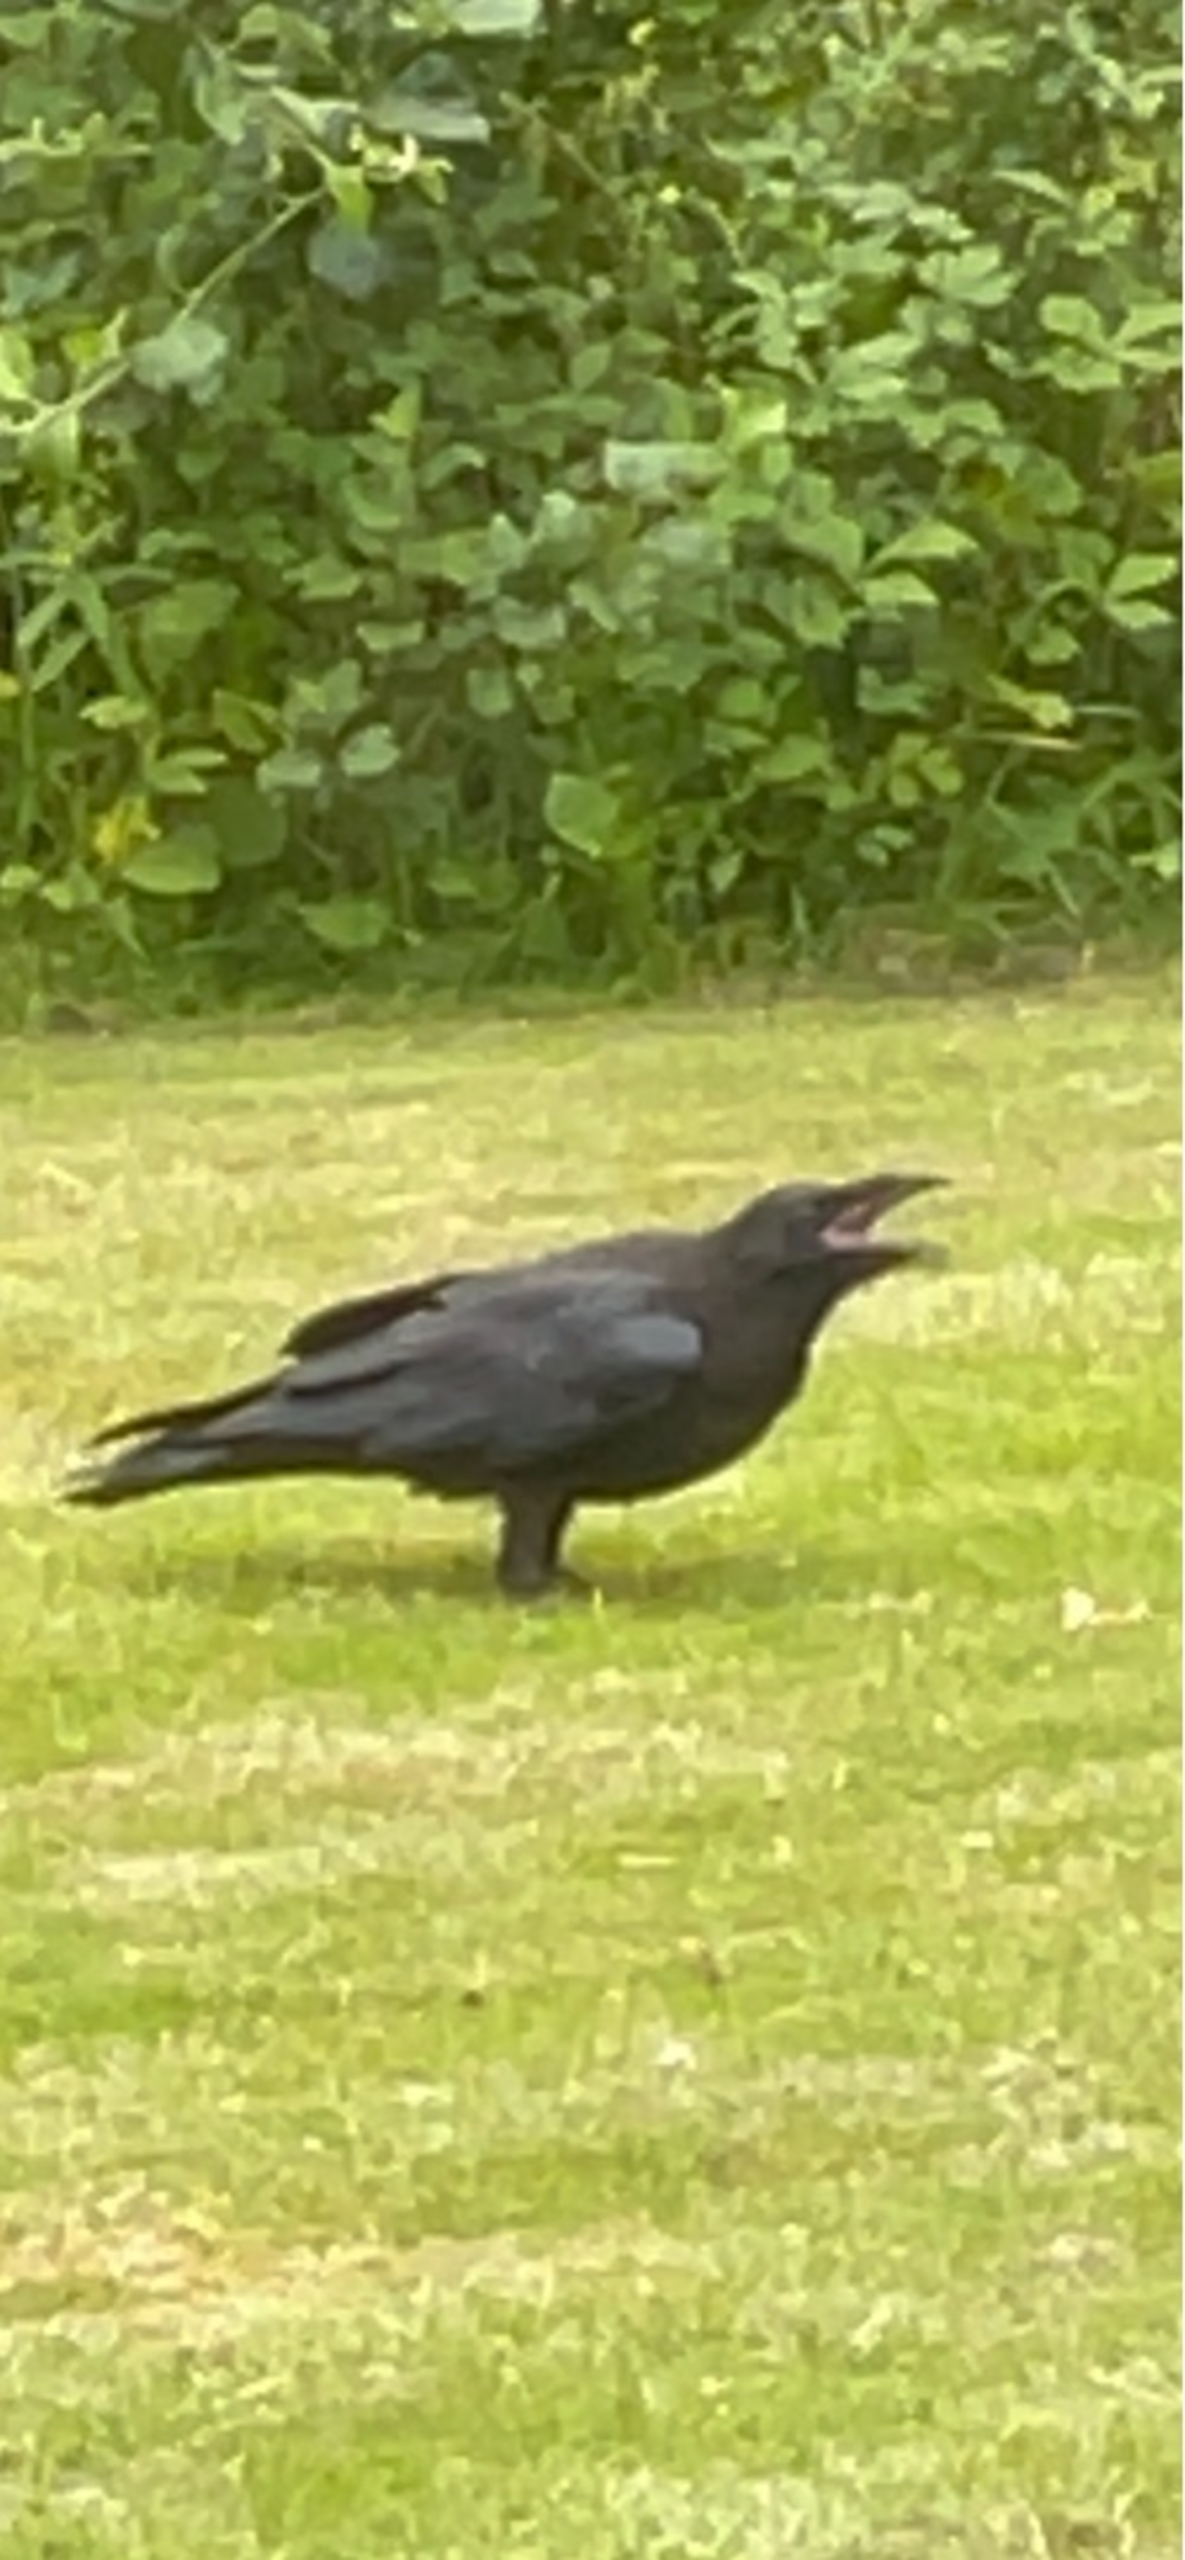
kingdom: Animalia
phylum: Chordata
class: Aves
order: Passeriformes
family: Corvidae
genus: Corvus
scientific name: Corvus corax
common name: Ravn
